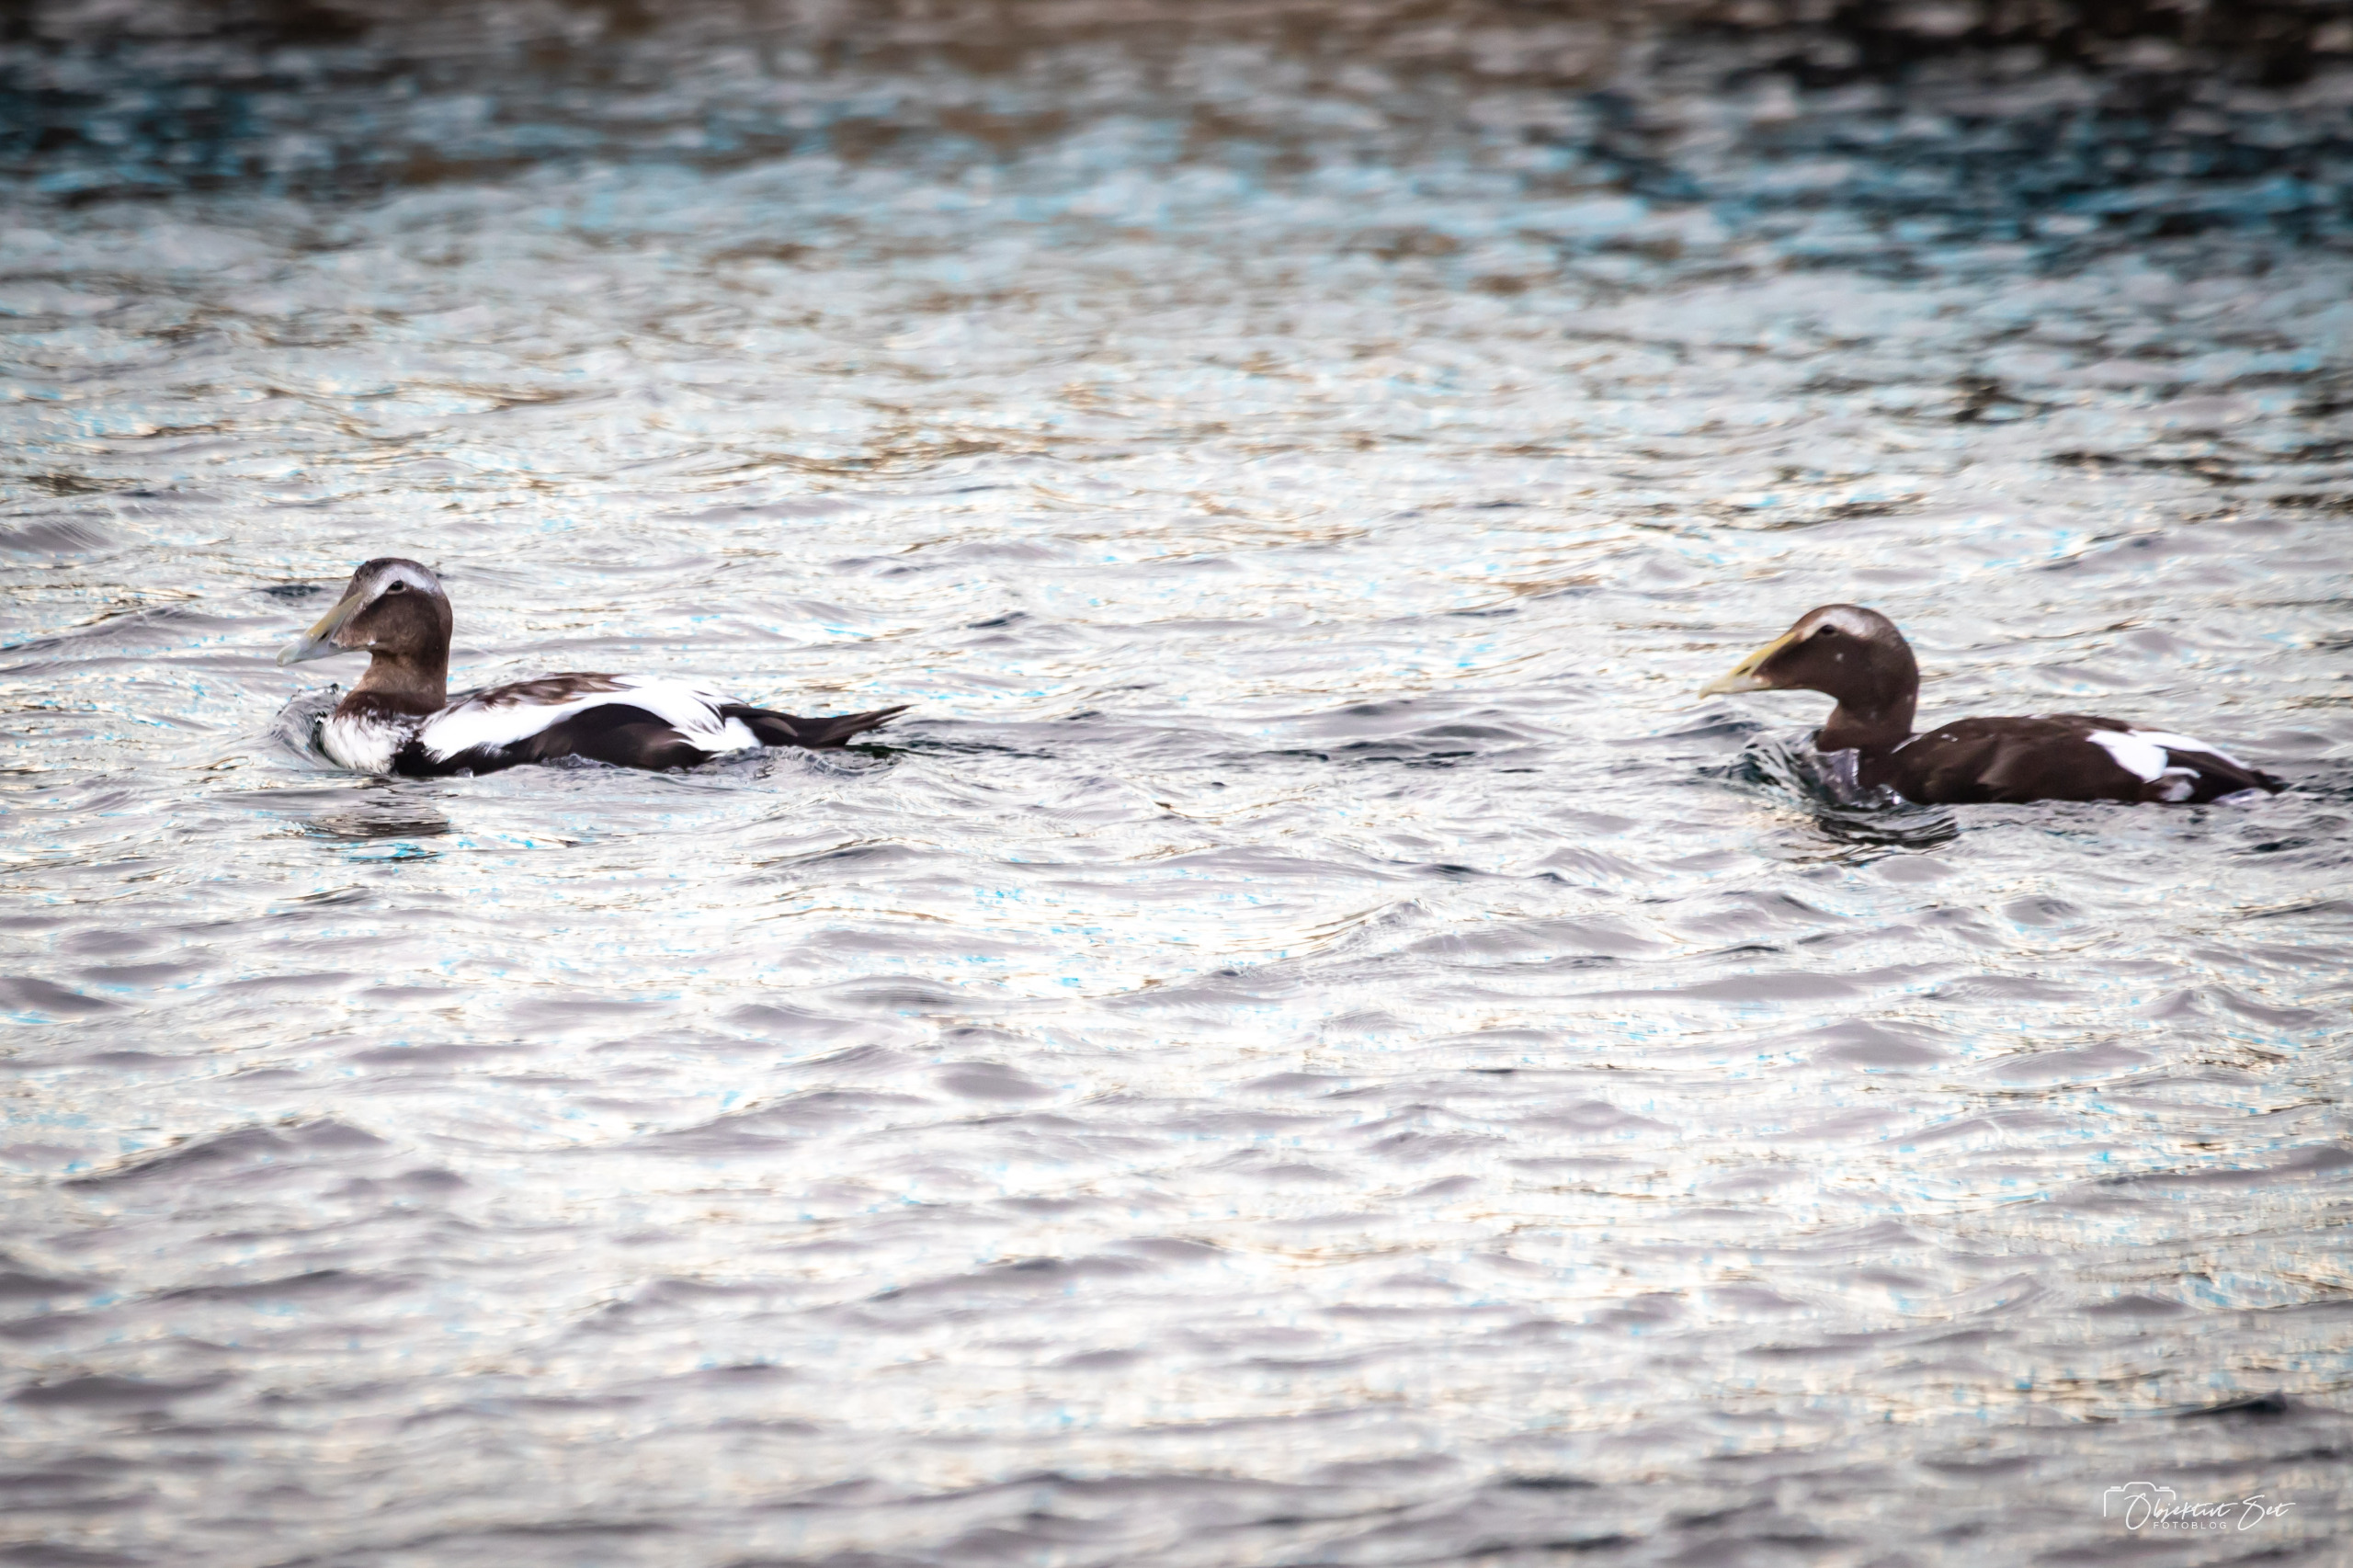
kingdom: Animalia
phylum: Chordata
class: Aves
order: Anseriformes
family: Anatidae
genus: Somateria
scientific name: Somateria mollissima
